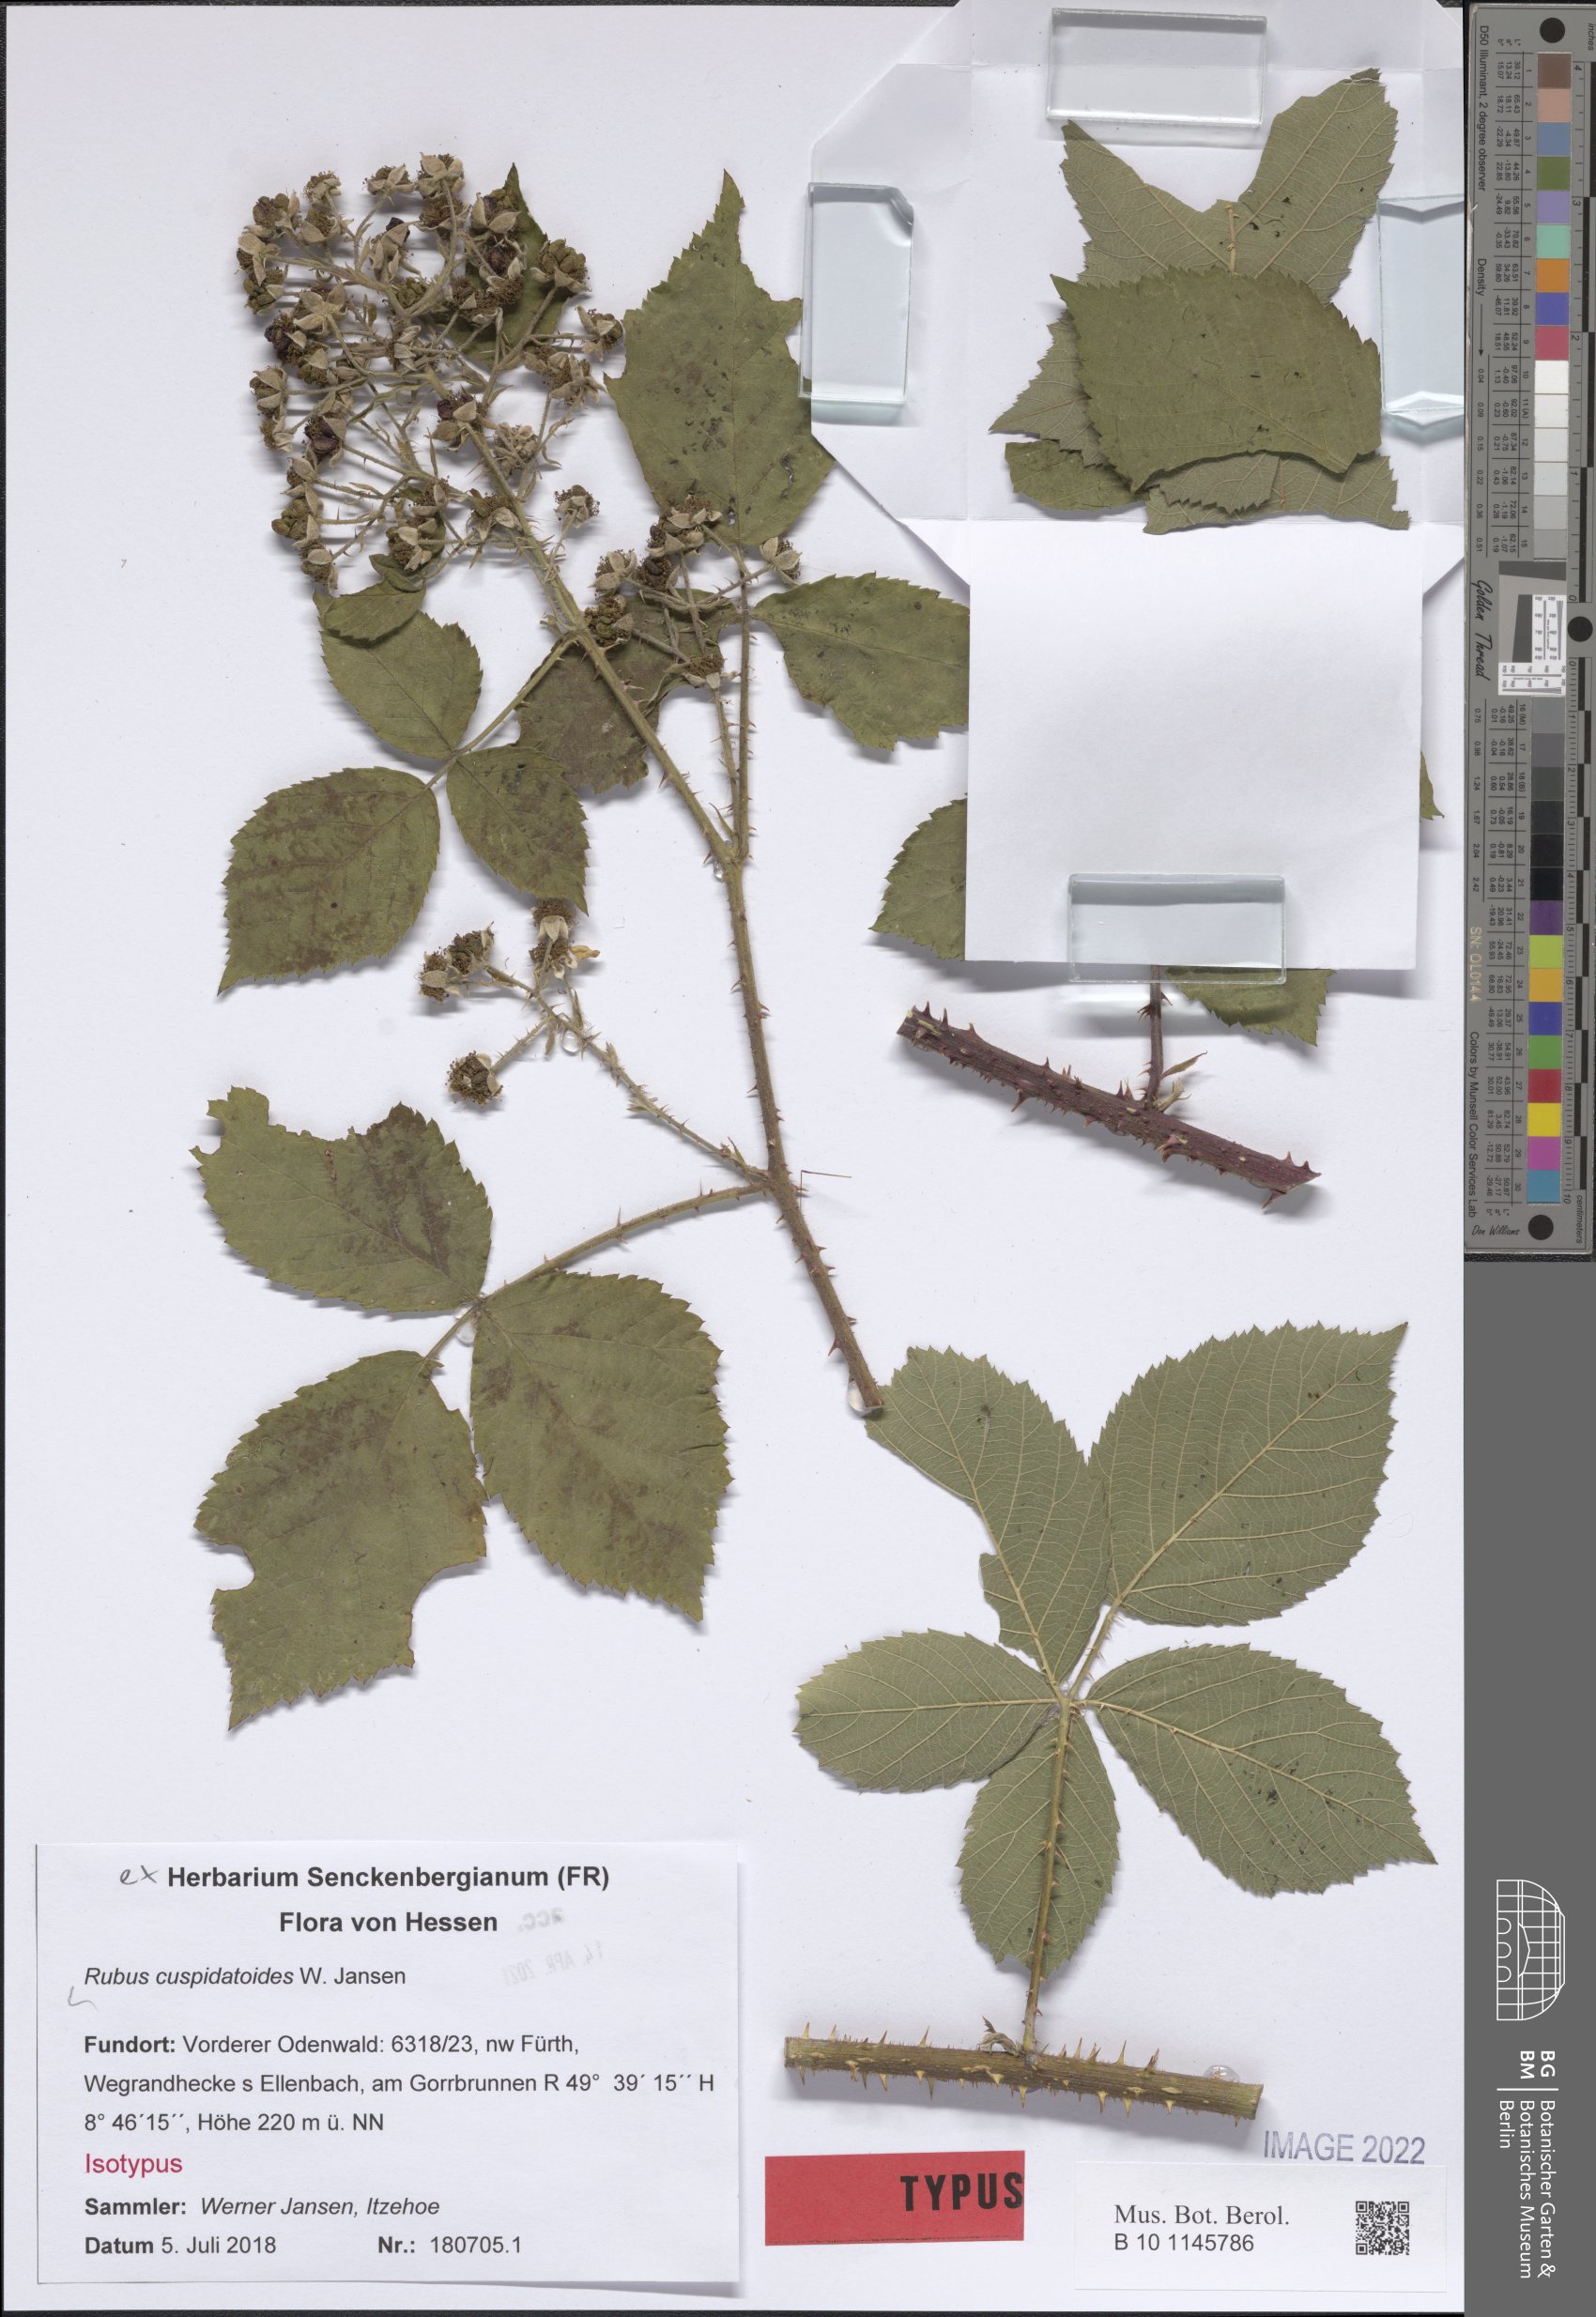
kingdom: Plantae
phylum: Tracheophyta
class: Magnoliopsida
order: Rosales
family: Rosaceae
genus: Rubus
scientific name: Rubus cuspidatoides
